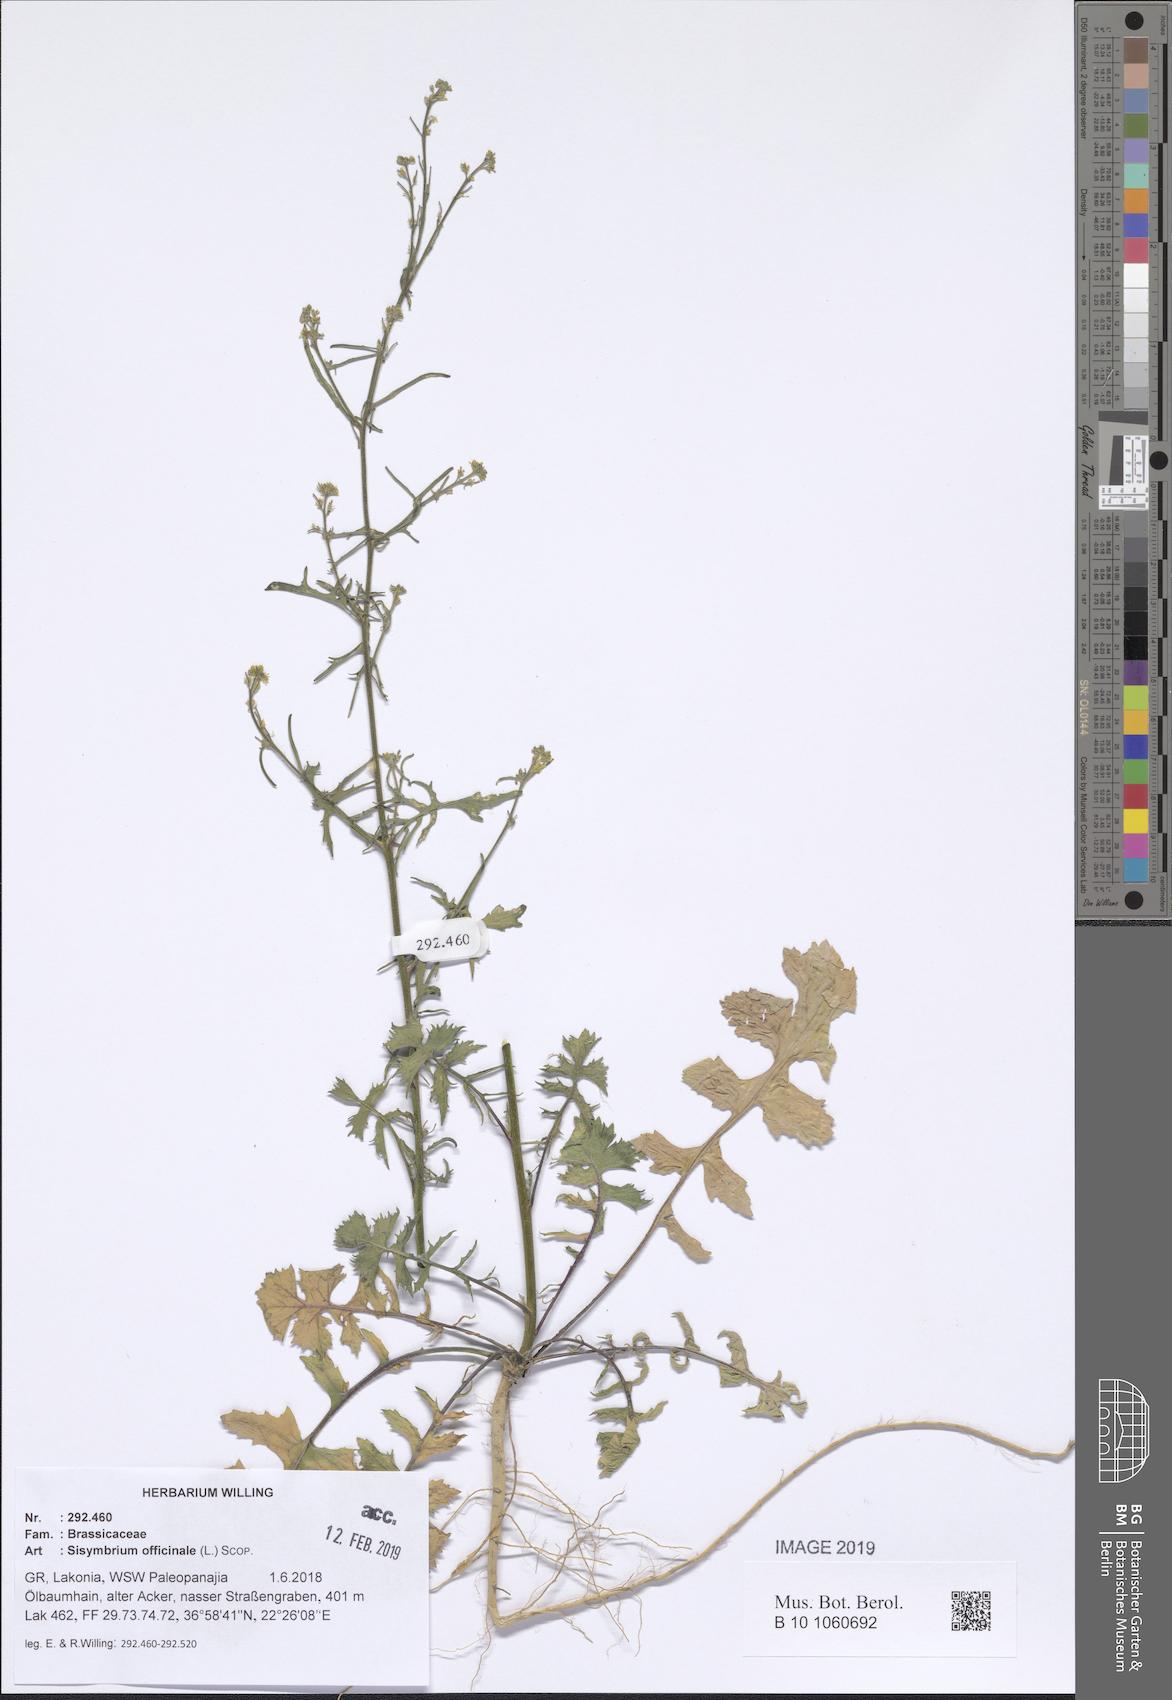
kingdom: Plantae
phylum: Tracheophyta
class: Magnoliopsida
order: Brassicales
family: Brassicaceae
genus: Sisymbrium
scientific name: Sisymbrium officinale
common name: Hedge mustard
